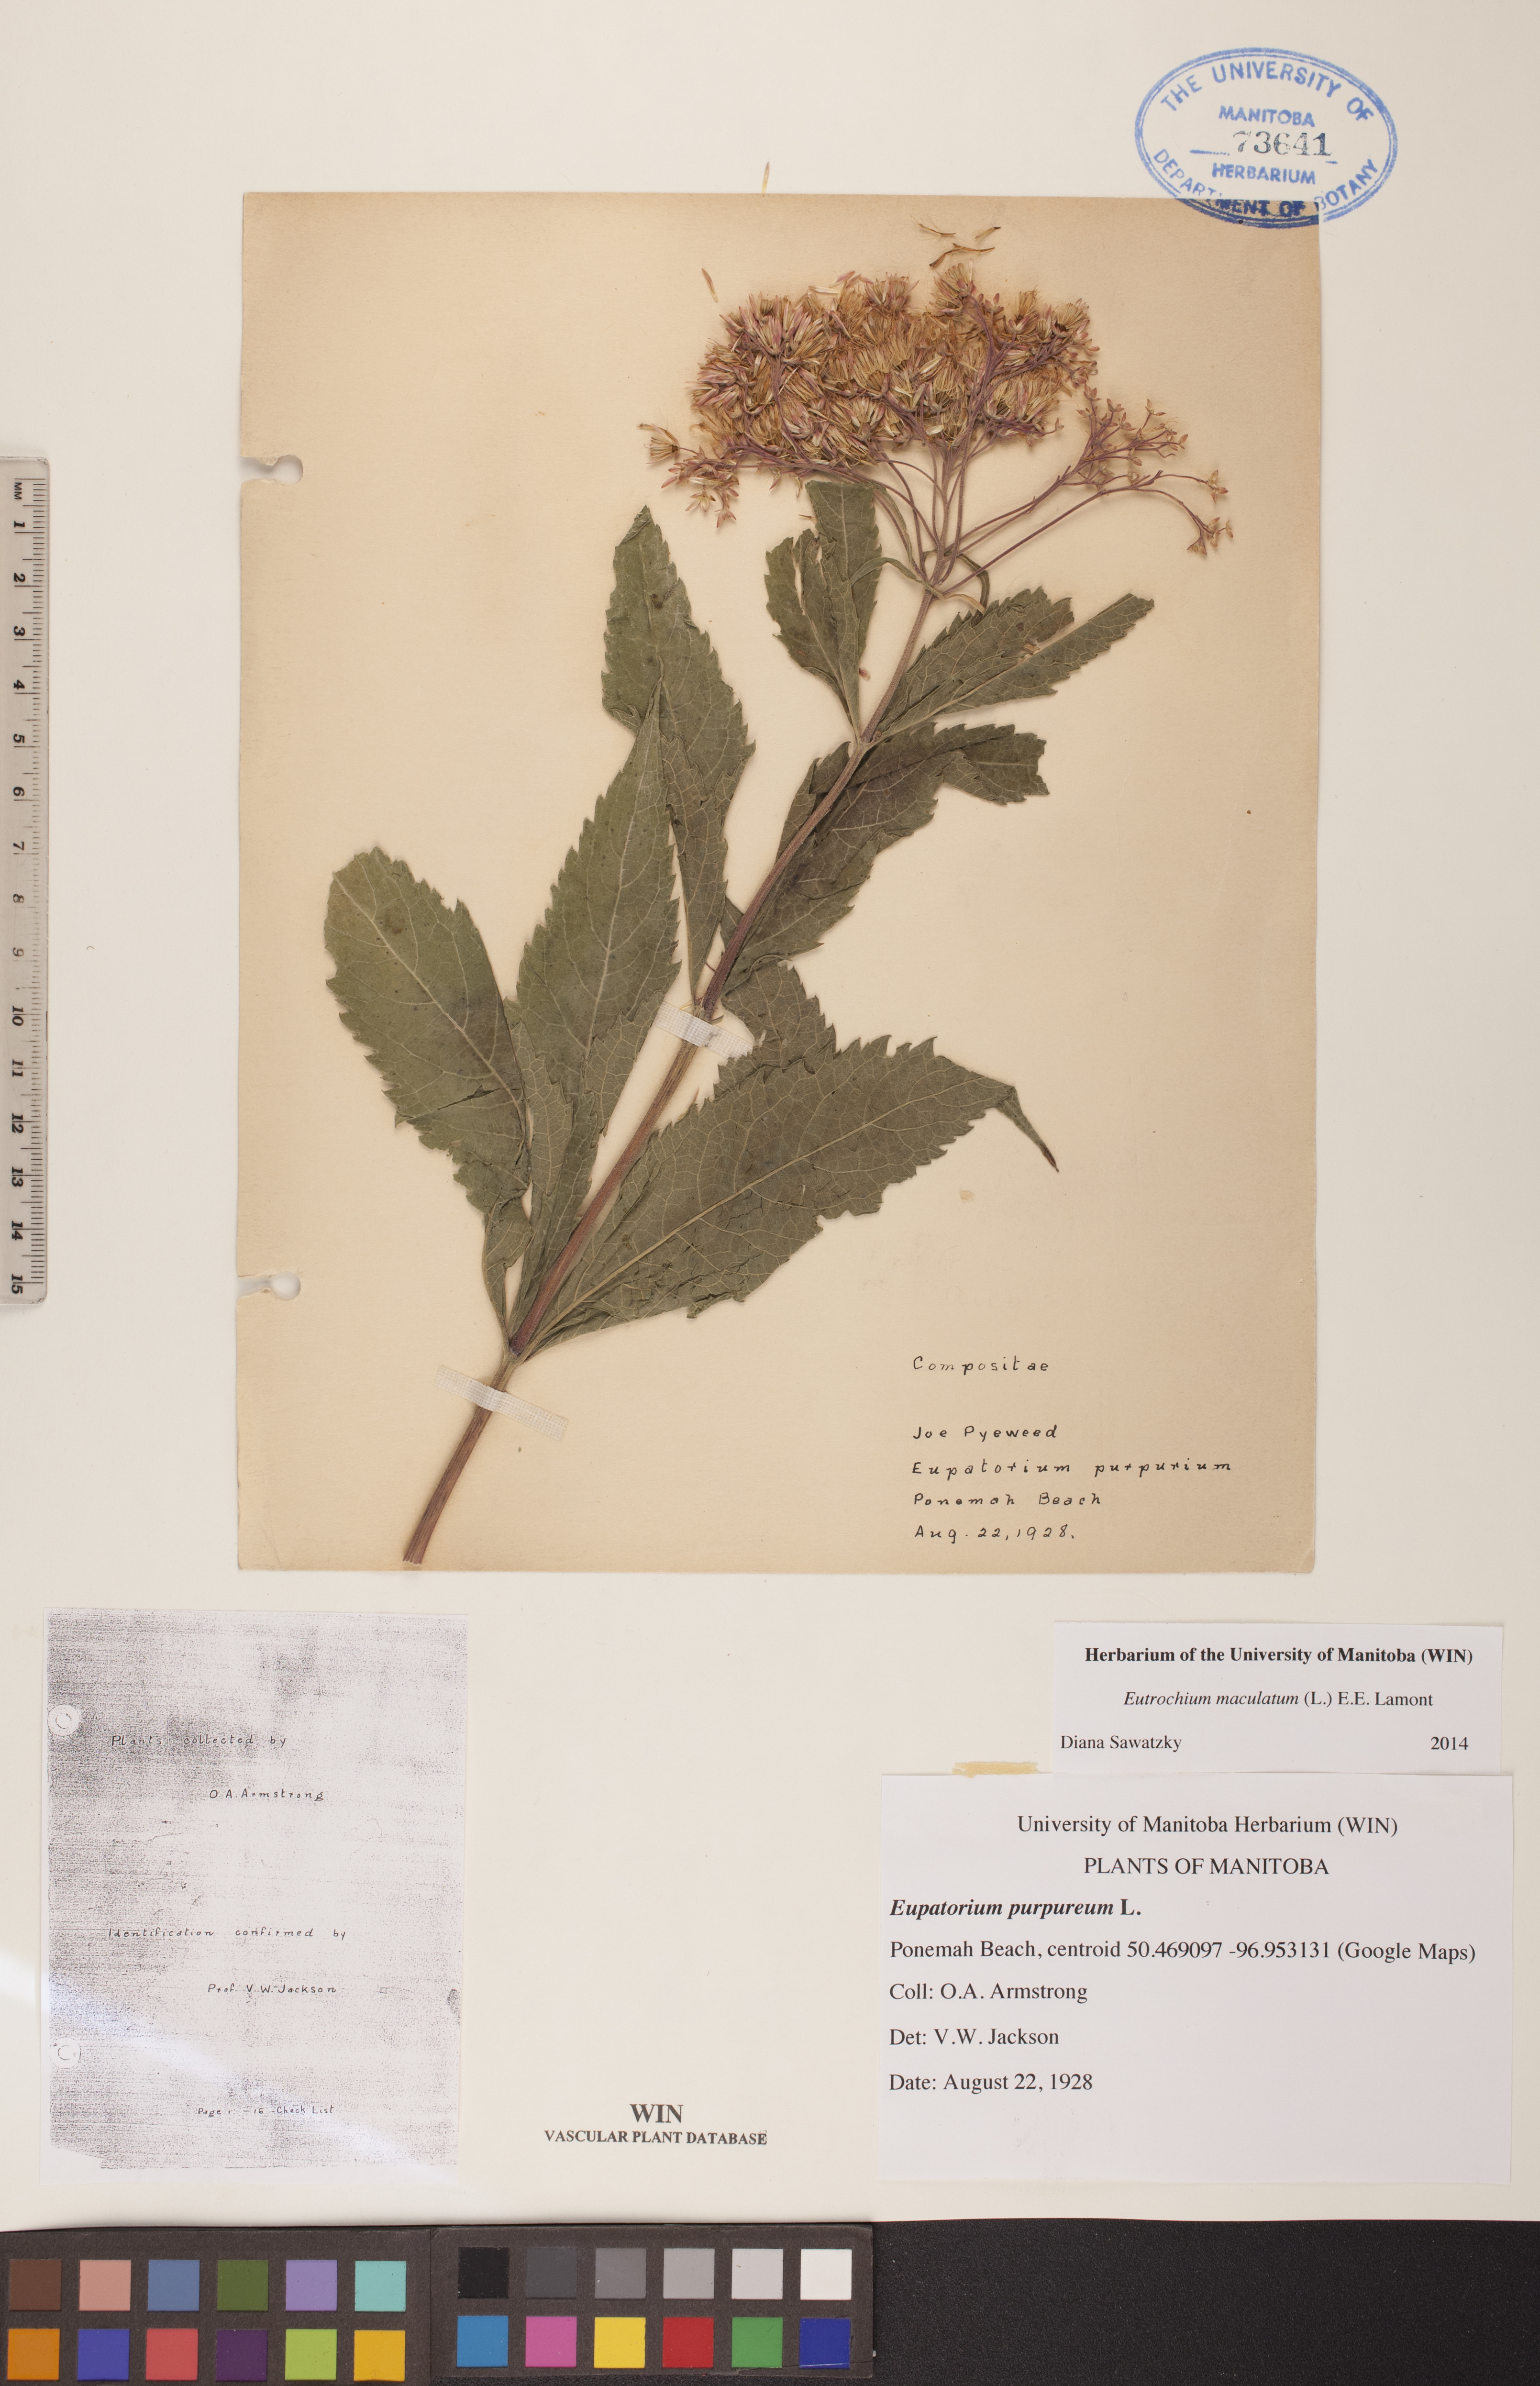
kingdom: Plantae
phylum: Tracheophyta
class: Magnoliopsida
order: Asterales
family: Asteraceae
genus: Eutrochium
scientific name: Eutrochium maculatum
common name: Spotted joe pye weed
